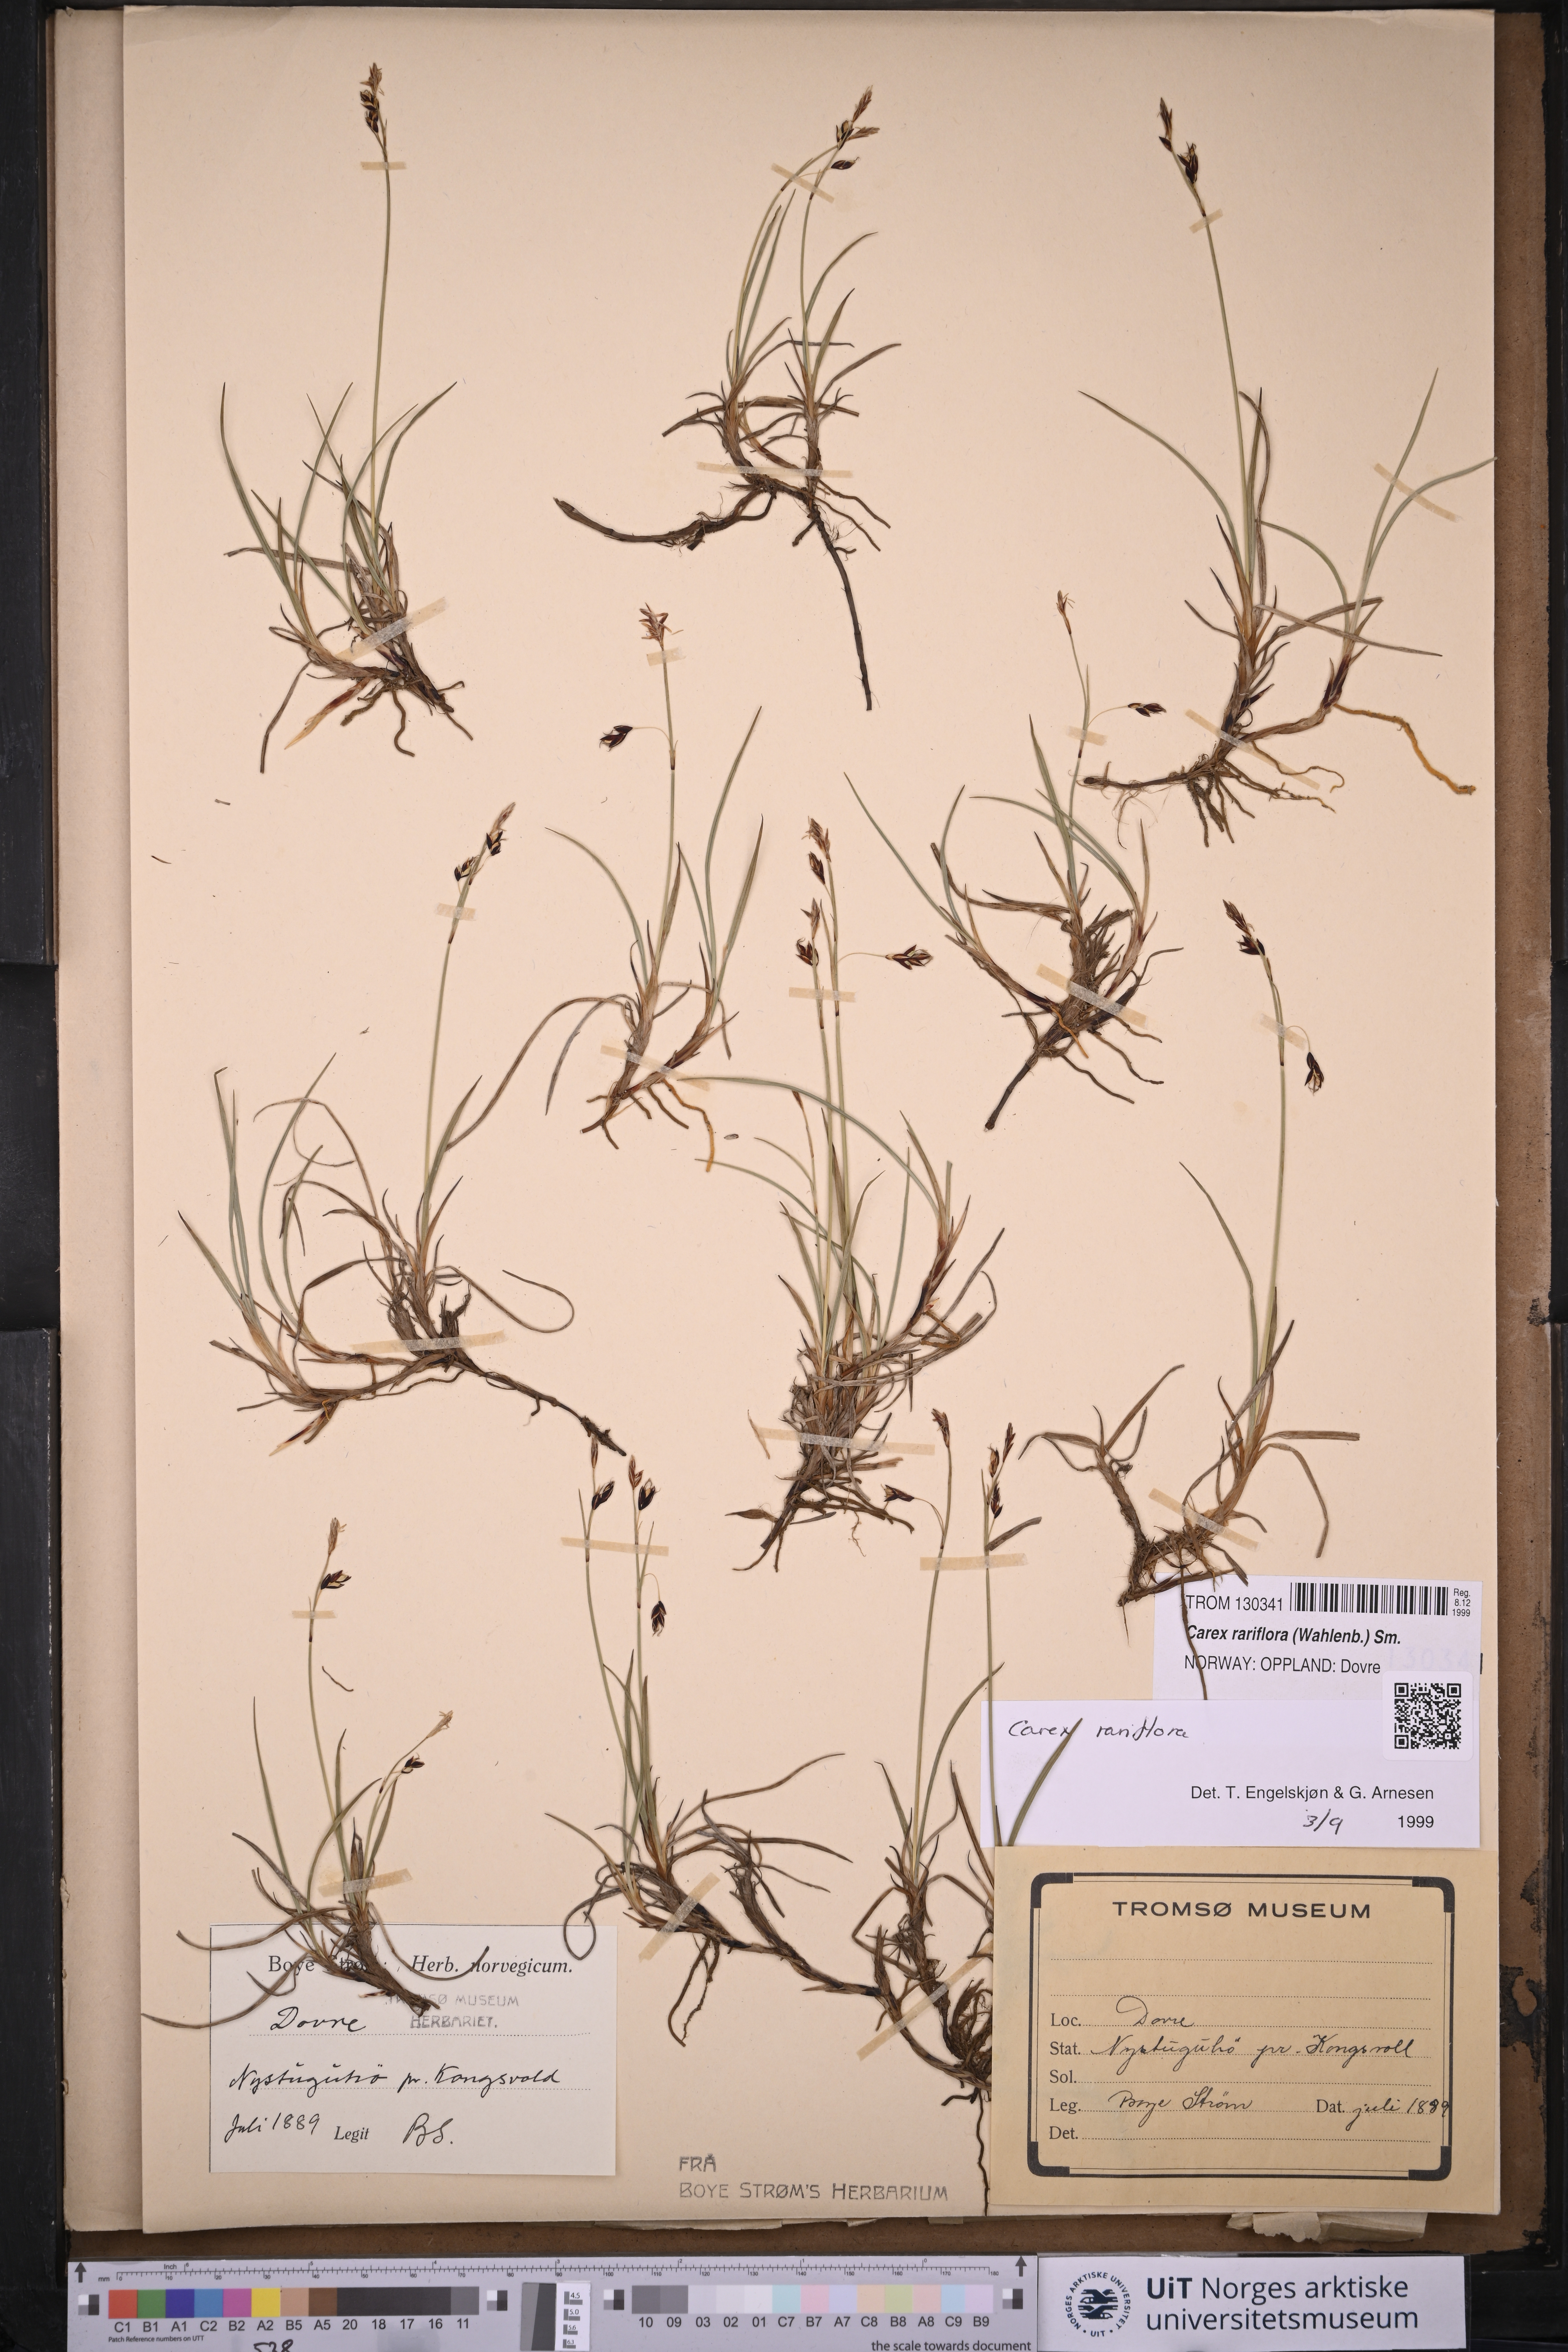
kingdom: Plantae
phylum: Tracheophyta
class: Liliopsida
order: Poales
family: Cyperaceae
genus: Carex
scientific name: Carex rariflora
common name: Loose-flowered alpine sedge
